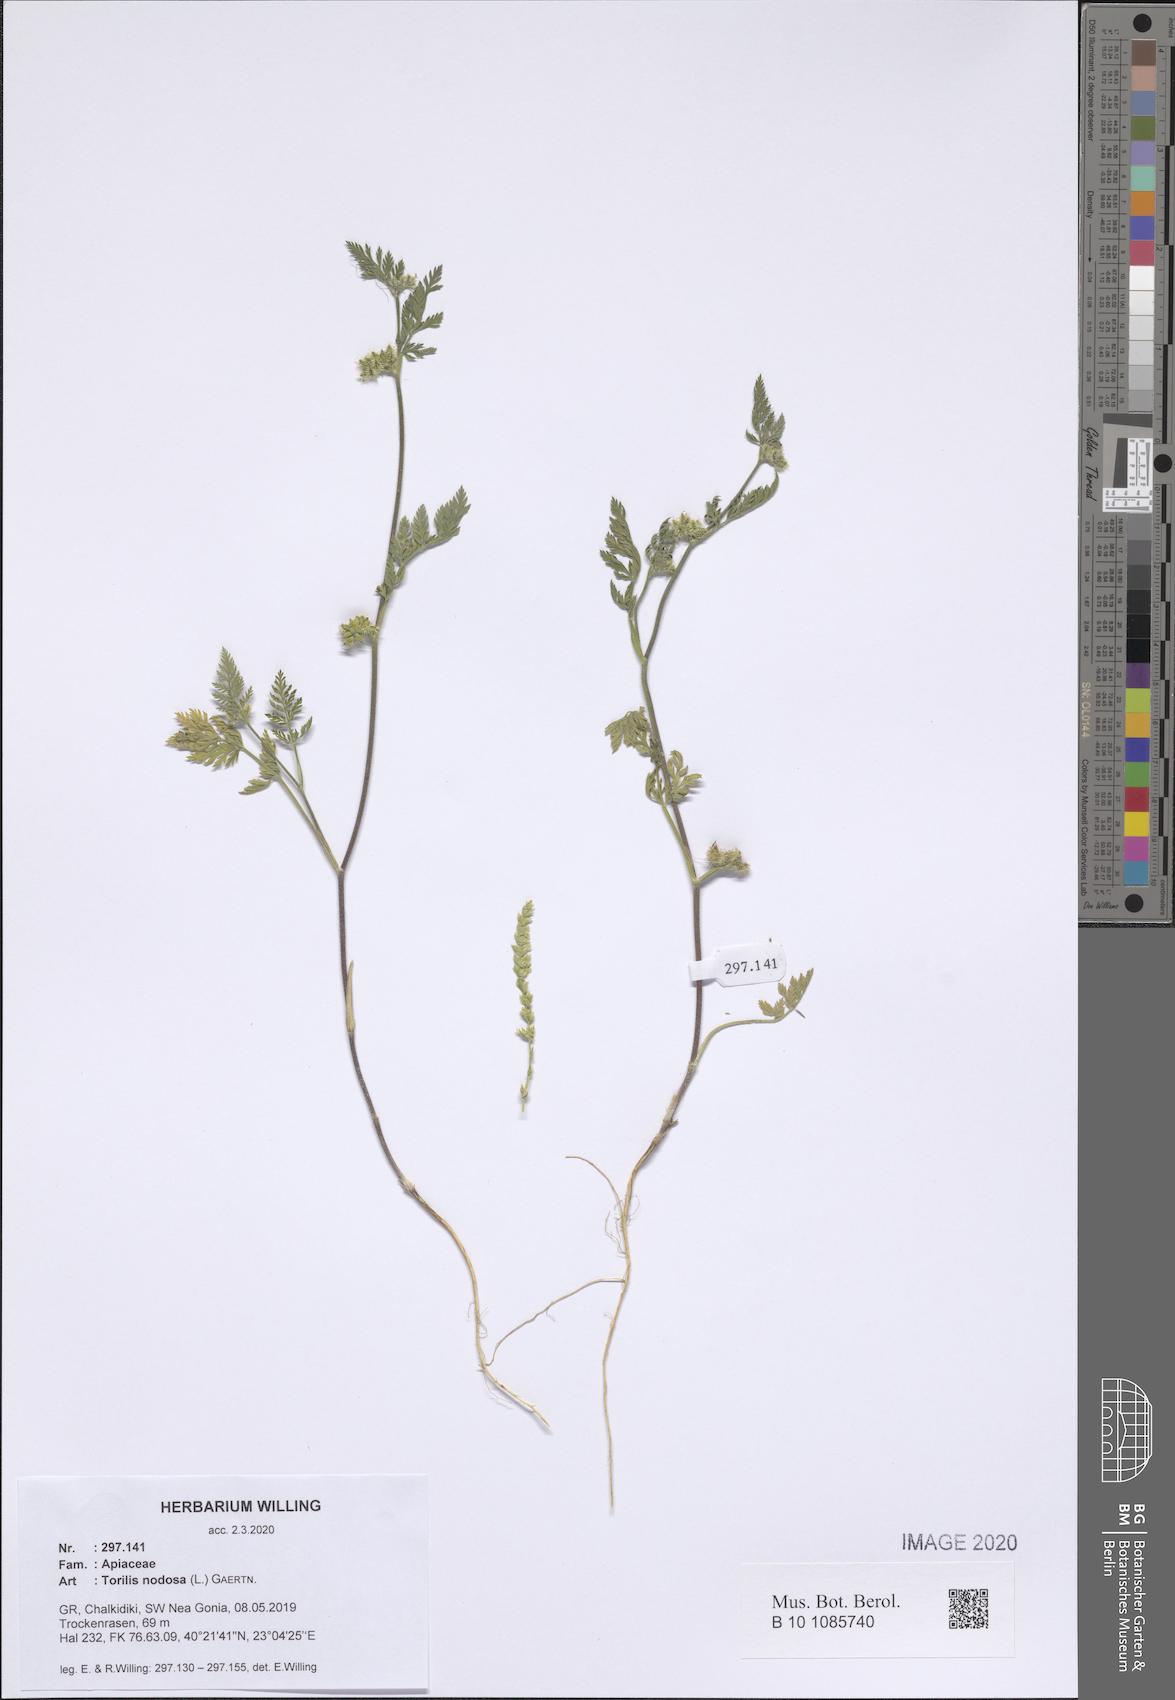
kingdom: Plantae
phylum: Tracheophyta
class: Magnoliopsida
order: Apiales
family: Apiaceae
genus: Torilis
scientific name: Torilis nodosa
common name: Knotted hedge-parsley
